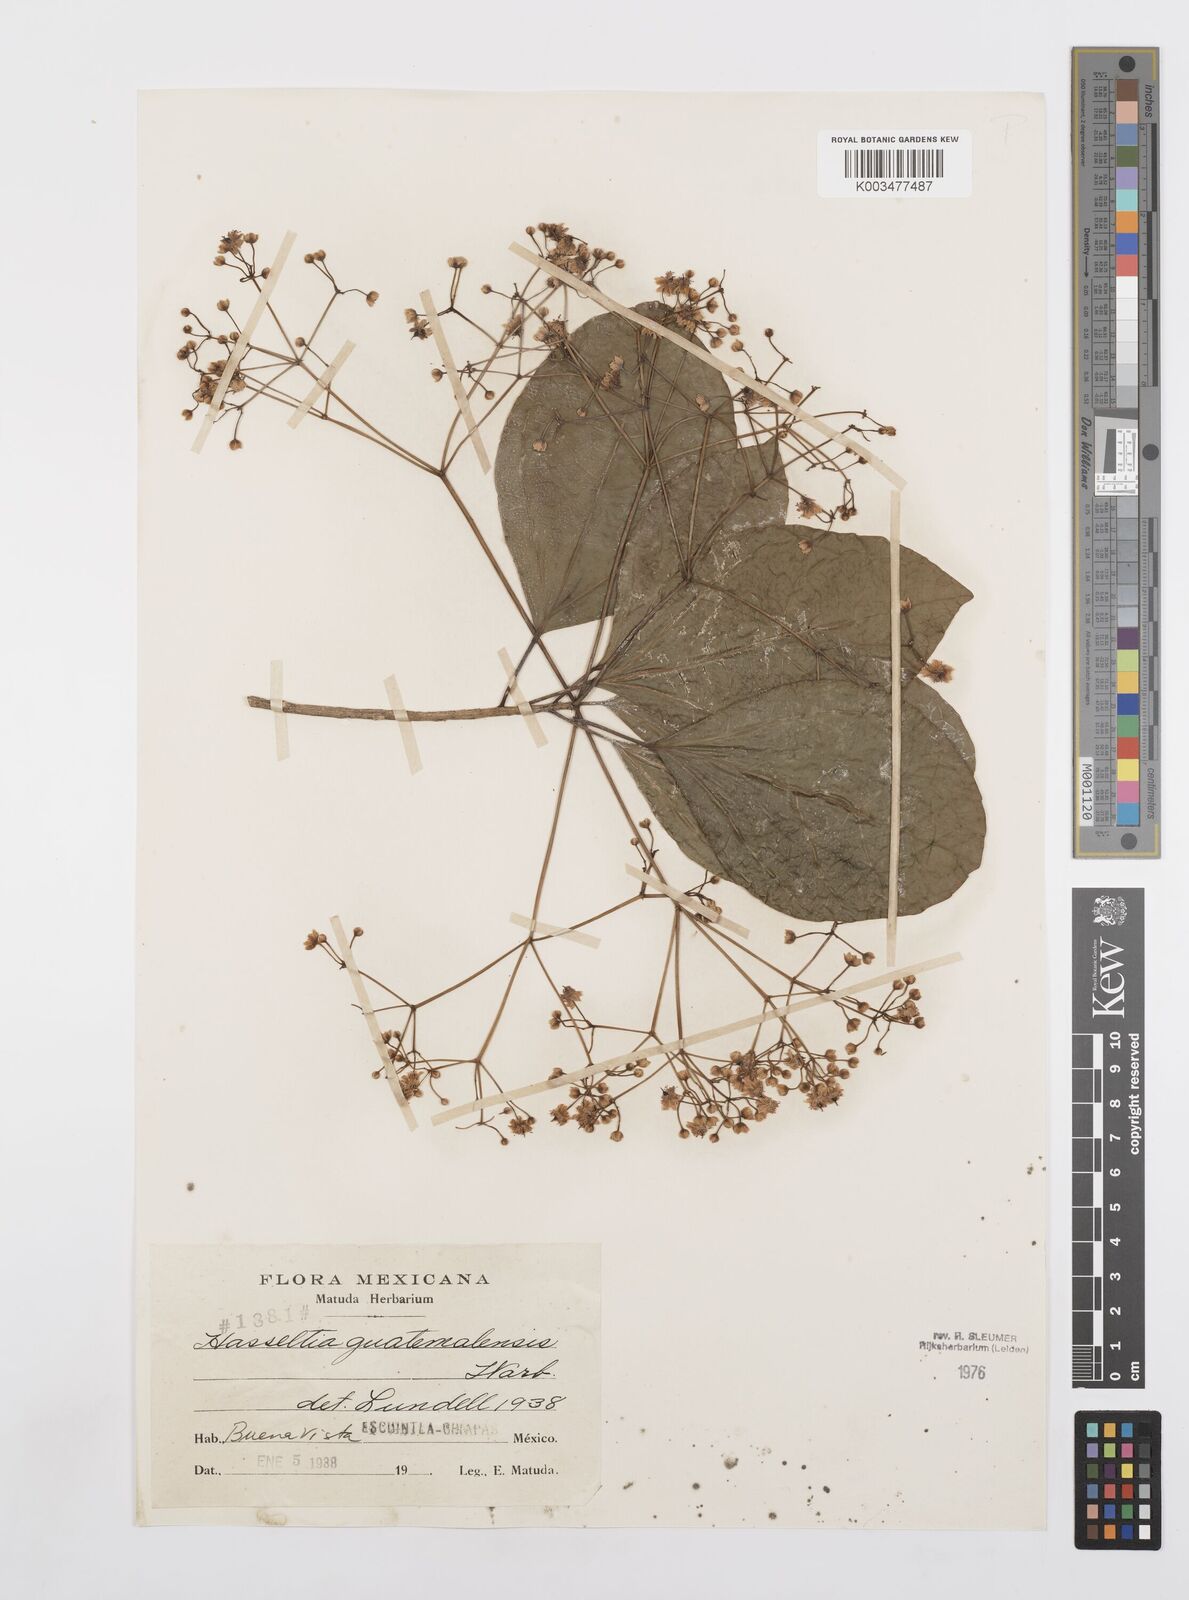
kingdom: Plantae
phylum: Tracheophyta
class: Magnoliopsida
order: Malpighiales
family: Salicaceae
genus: Hasseltia
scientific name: Hasseltia guatemalensis
